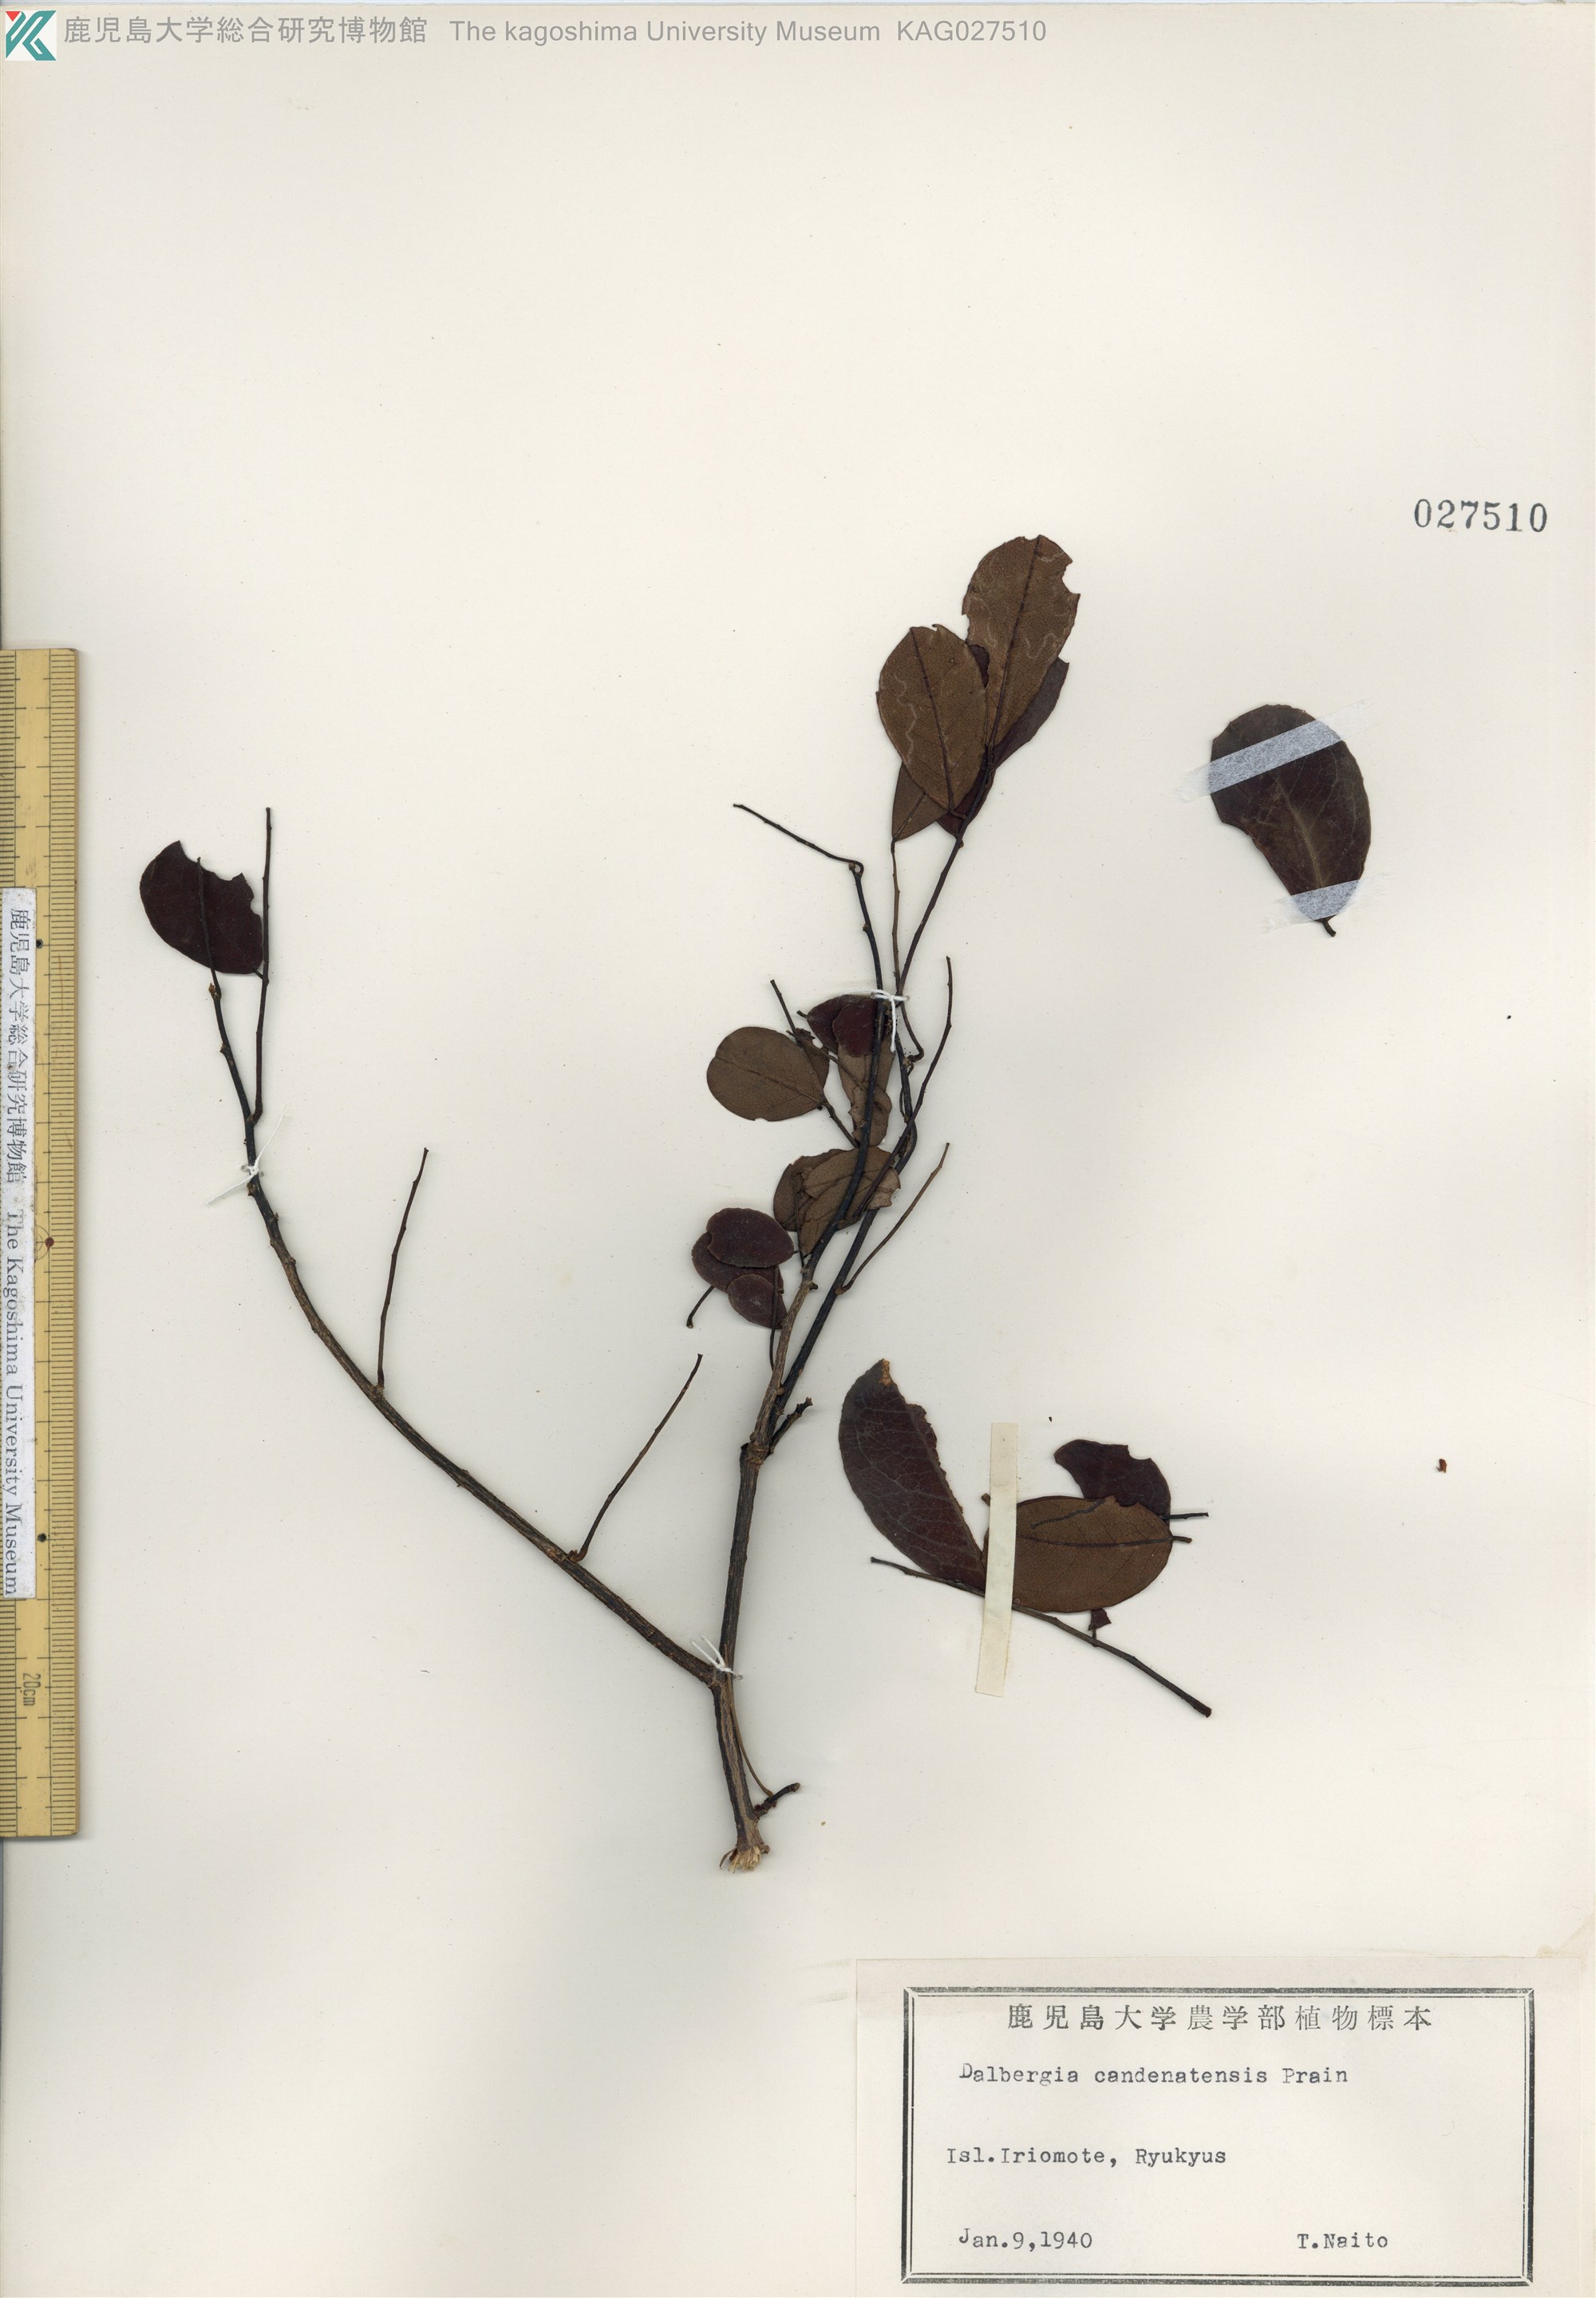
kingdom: Plantae
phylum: Tracheophyta
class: Magnoliopsida
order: Fabales
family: Fabaceae
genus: Dalbergia
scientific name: Dalbergia candenatensis
